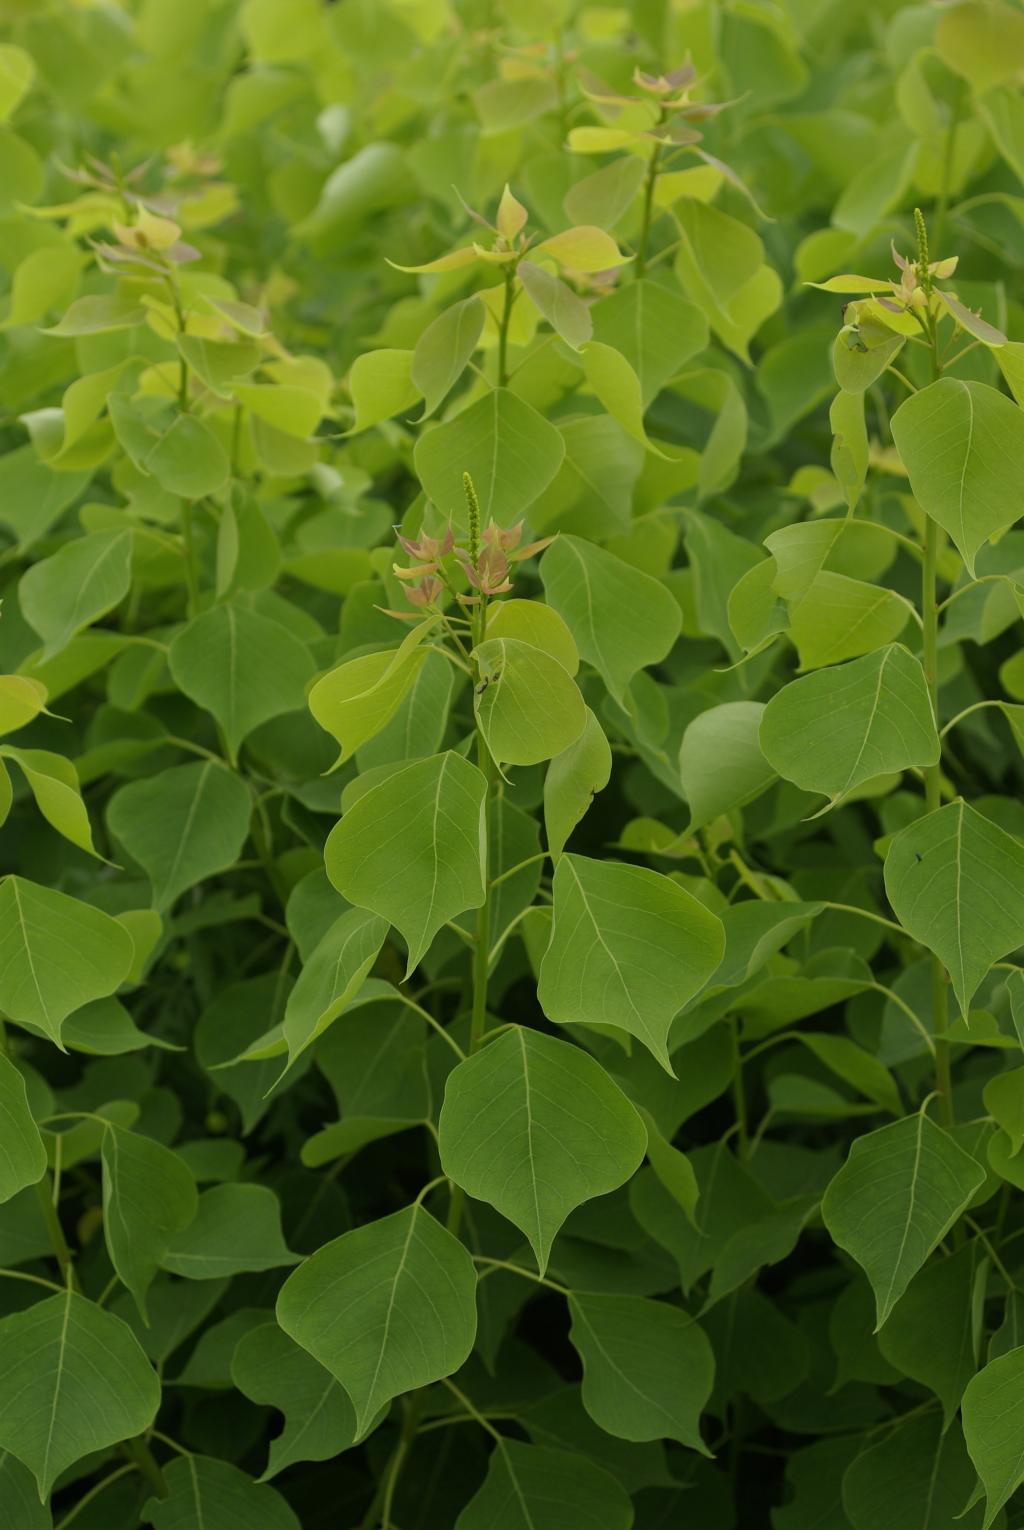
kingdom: Plantae
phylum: Tracheophyta
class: Magnoliopsida
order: Malpighiales
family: Euphorbiaceae
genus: Triadica
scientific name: Triadica sebifera
